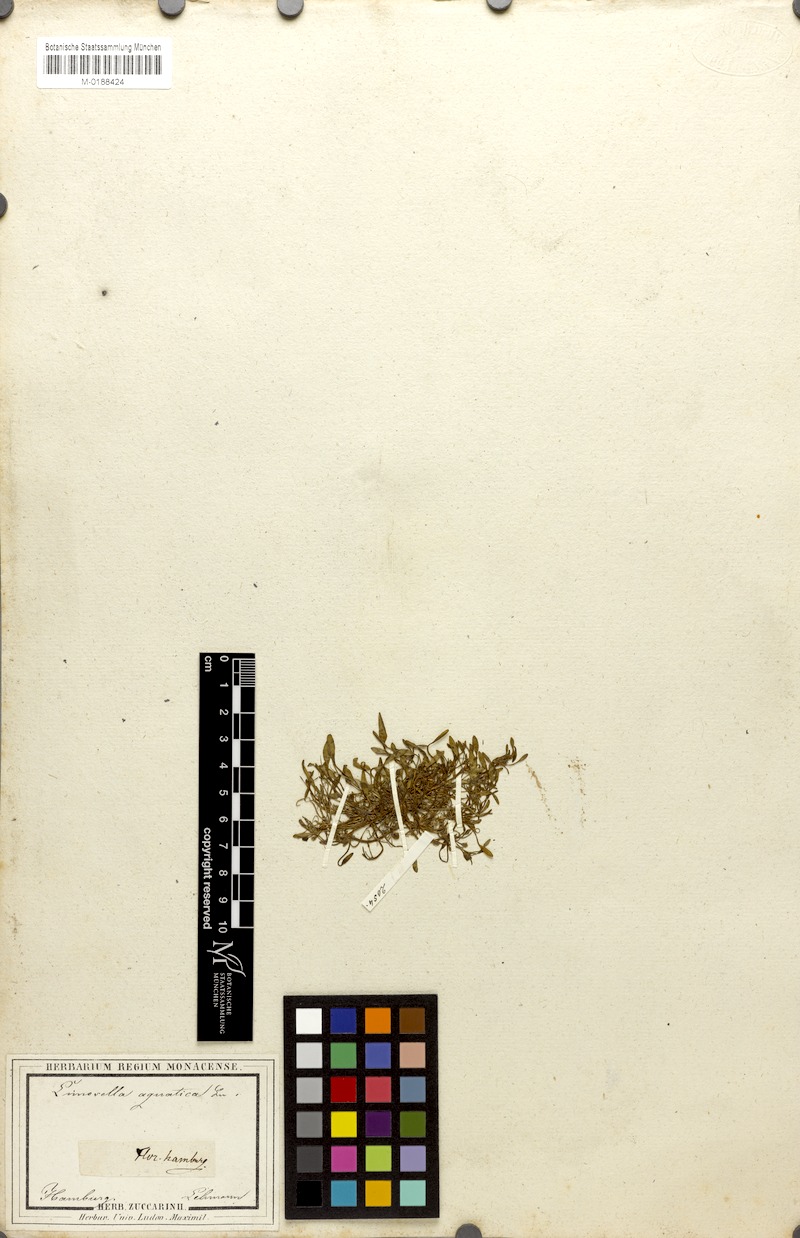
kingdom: Plantae
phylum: Tracheophyta
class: Magnoliopsida
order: Lamiales
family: Scrophulariaceae
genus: Limosella
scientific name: Limosella aquatica
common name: Mudwort
